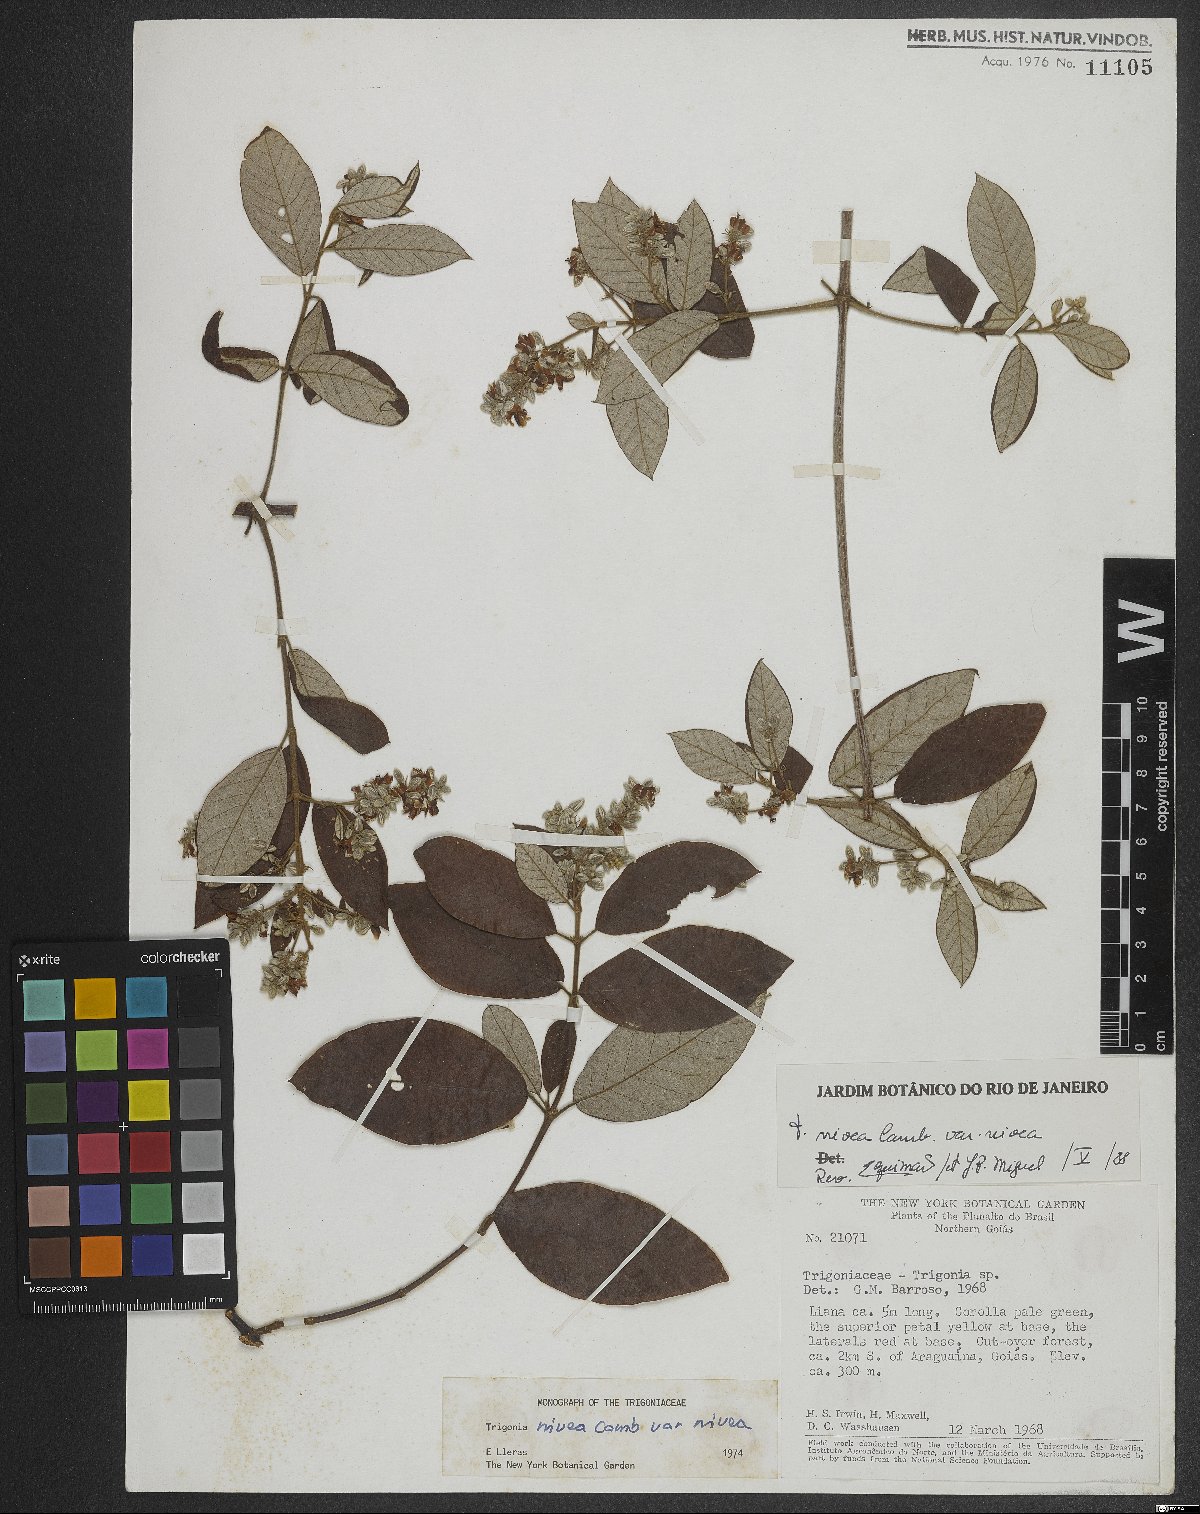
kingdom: Plantae
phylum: Tracheophyta
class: Magnoliopsida
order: Malpighiales
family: Trigoniaceae
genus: Trigonia
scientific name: Trigonia nivea
